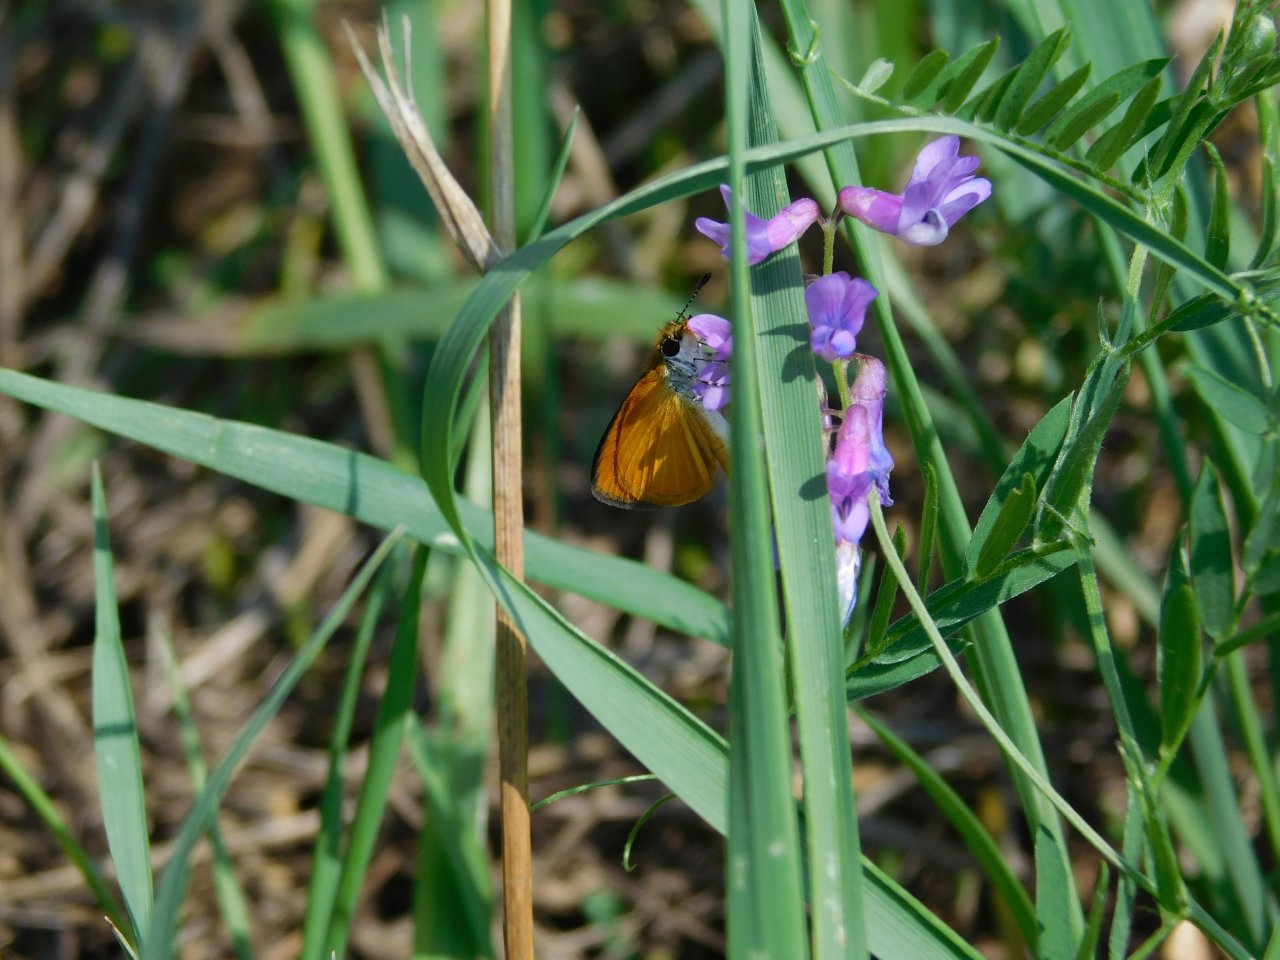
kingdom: Animalia
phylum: Arthropoda
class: Insecta
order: Lepidoptera
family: Hesperiidae
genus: Ancyloxypha
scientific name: Ancyloxypha numitor
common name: Least Skipper
